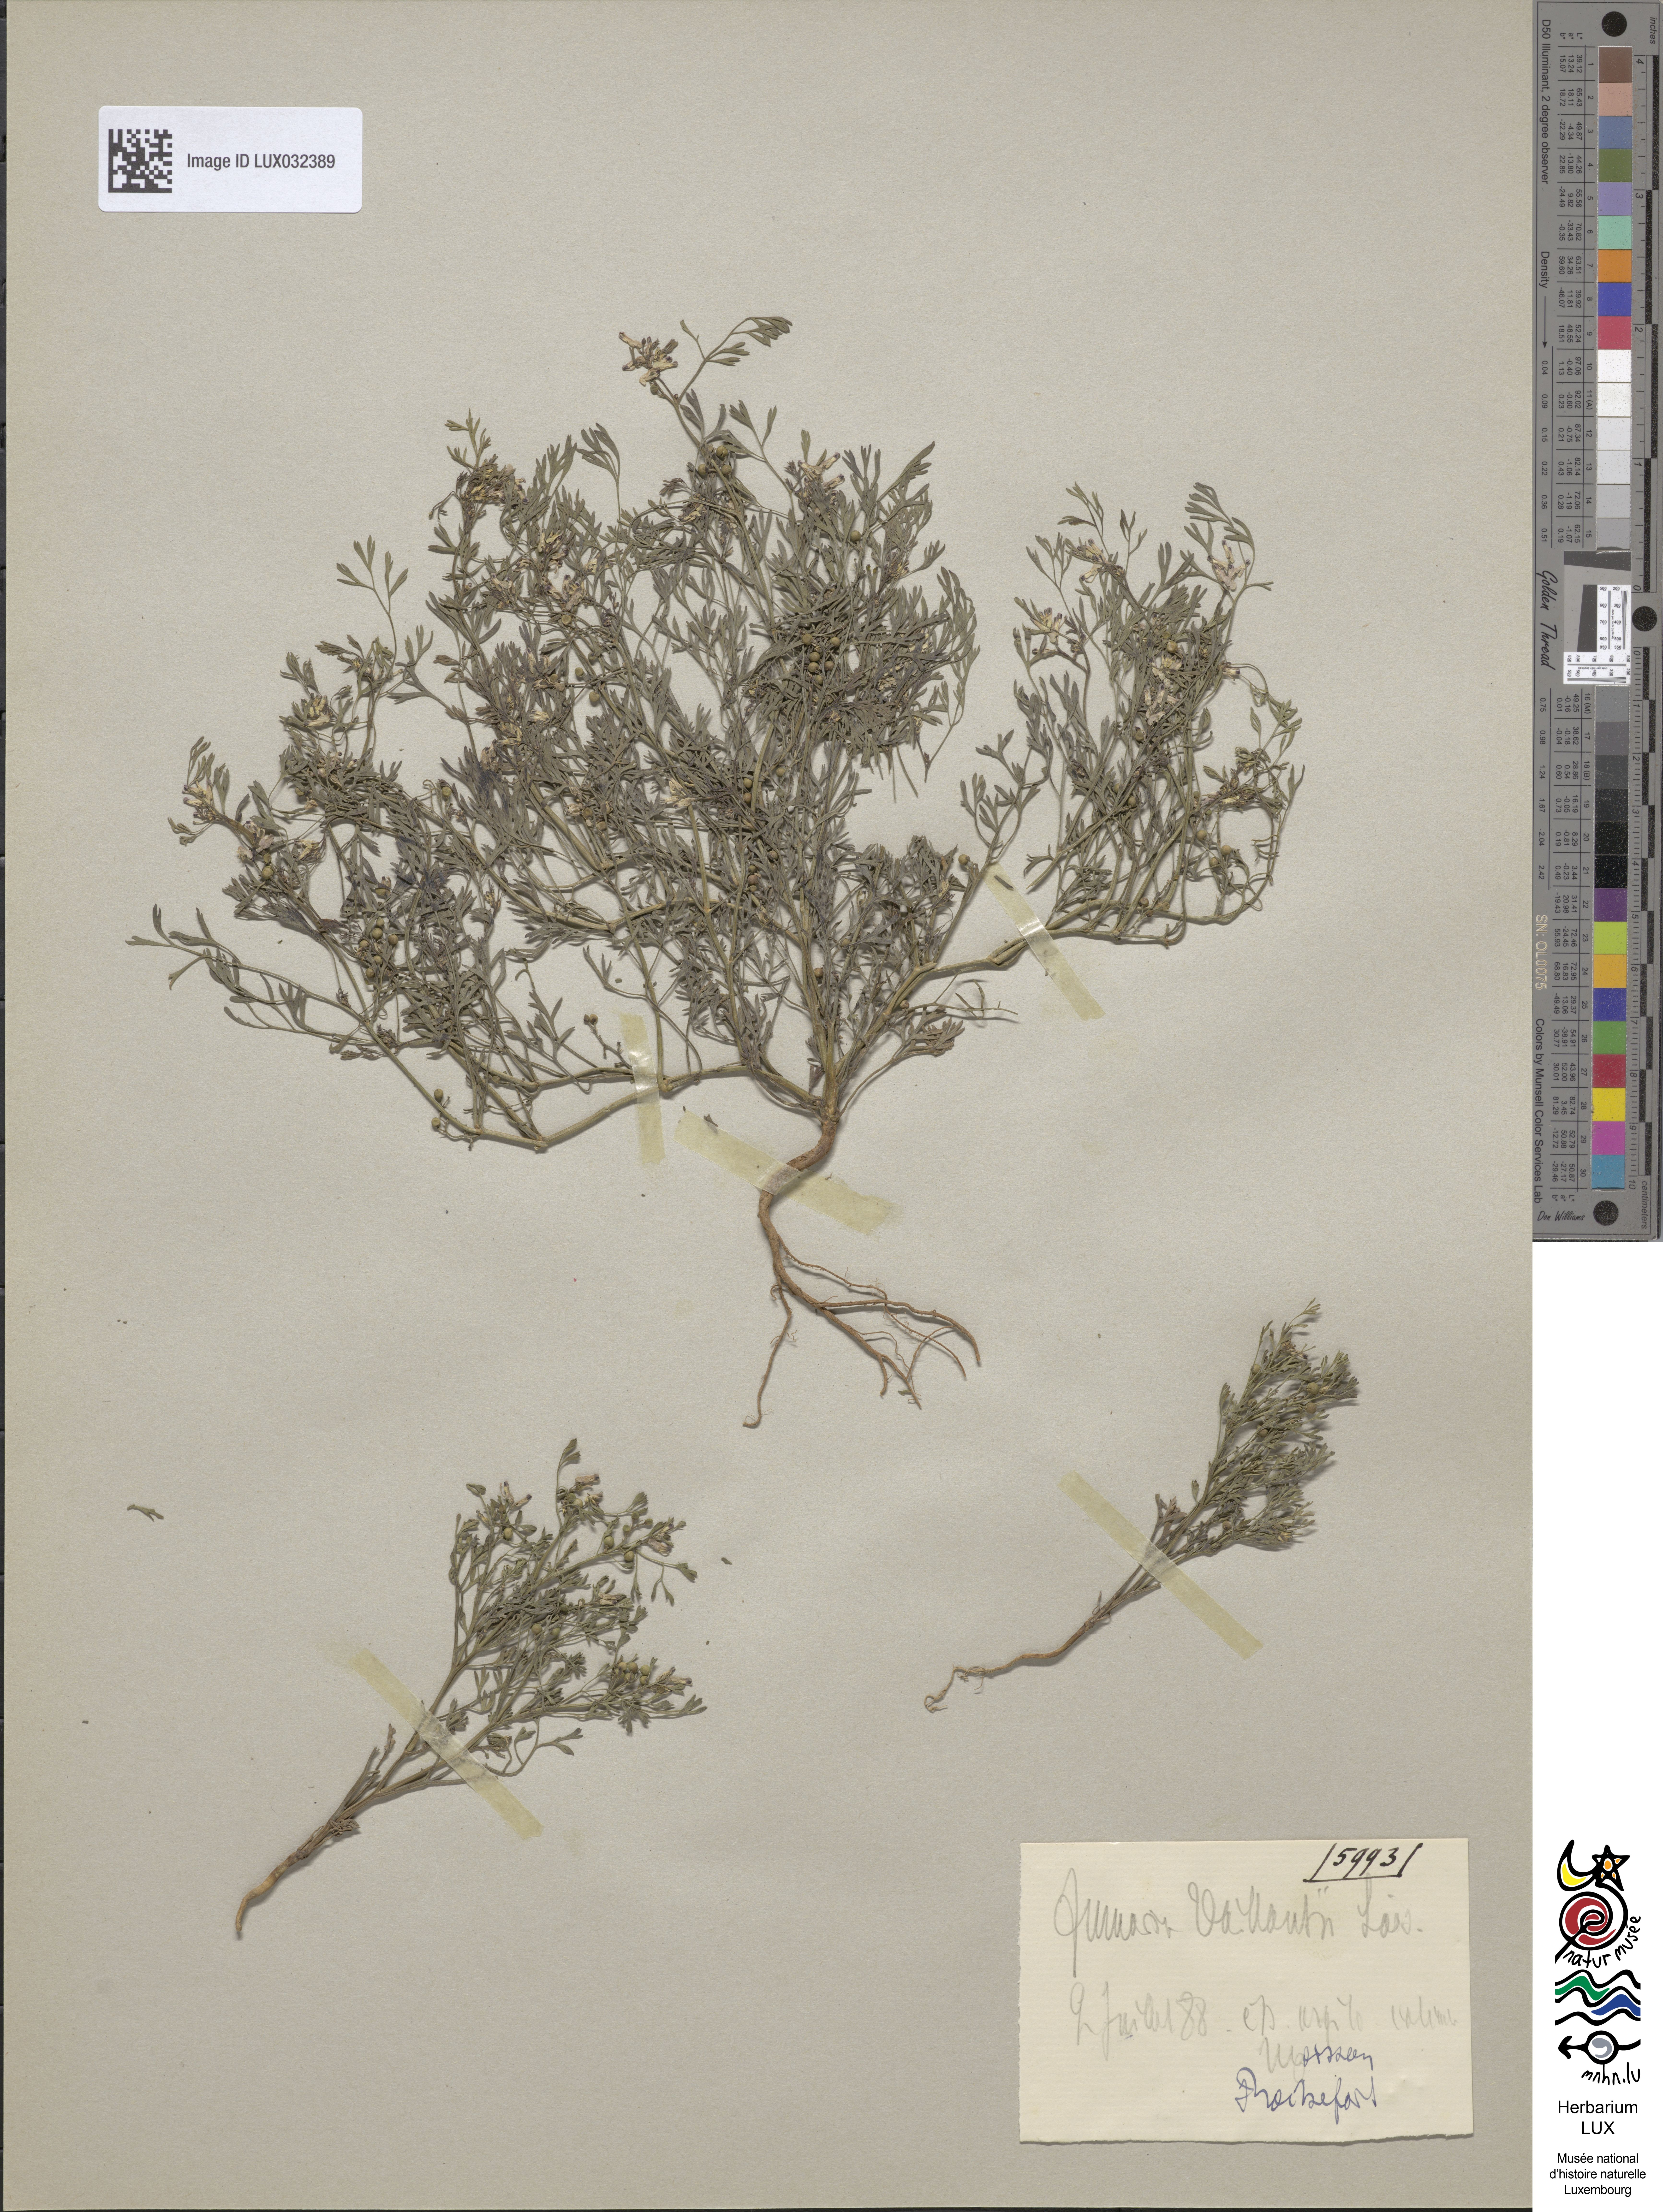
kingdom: Plantae
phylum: Tracheophyta
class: Magnoliopsida
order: Ranunculales
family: Papaveraceae
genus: Fumaria
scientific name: Fumaria vaillantii
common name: Few-flowered fumitory
